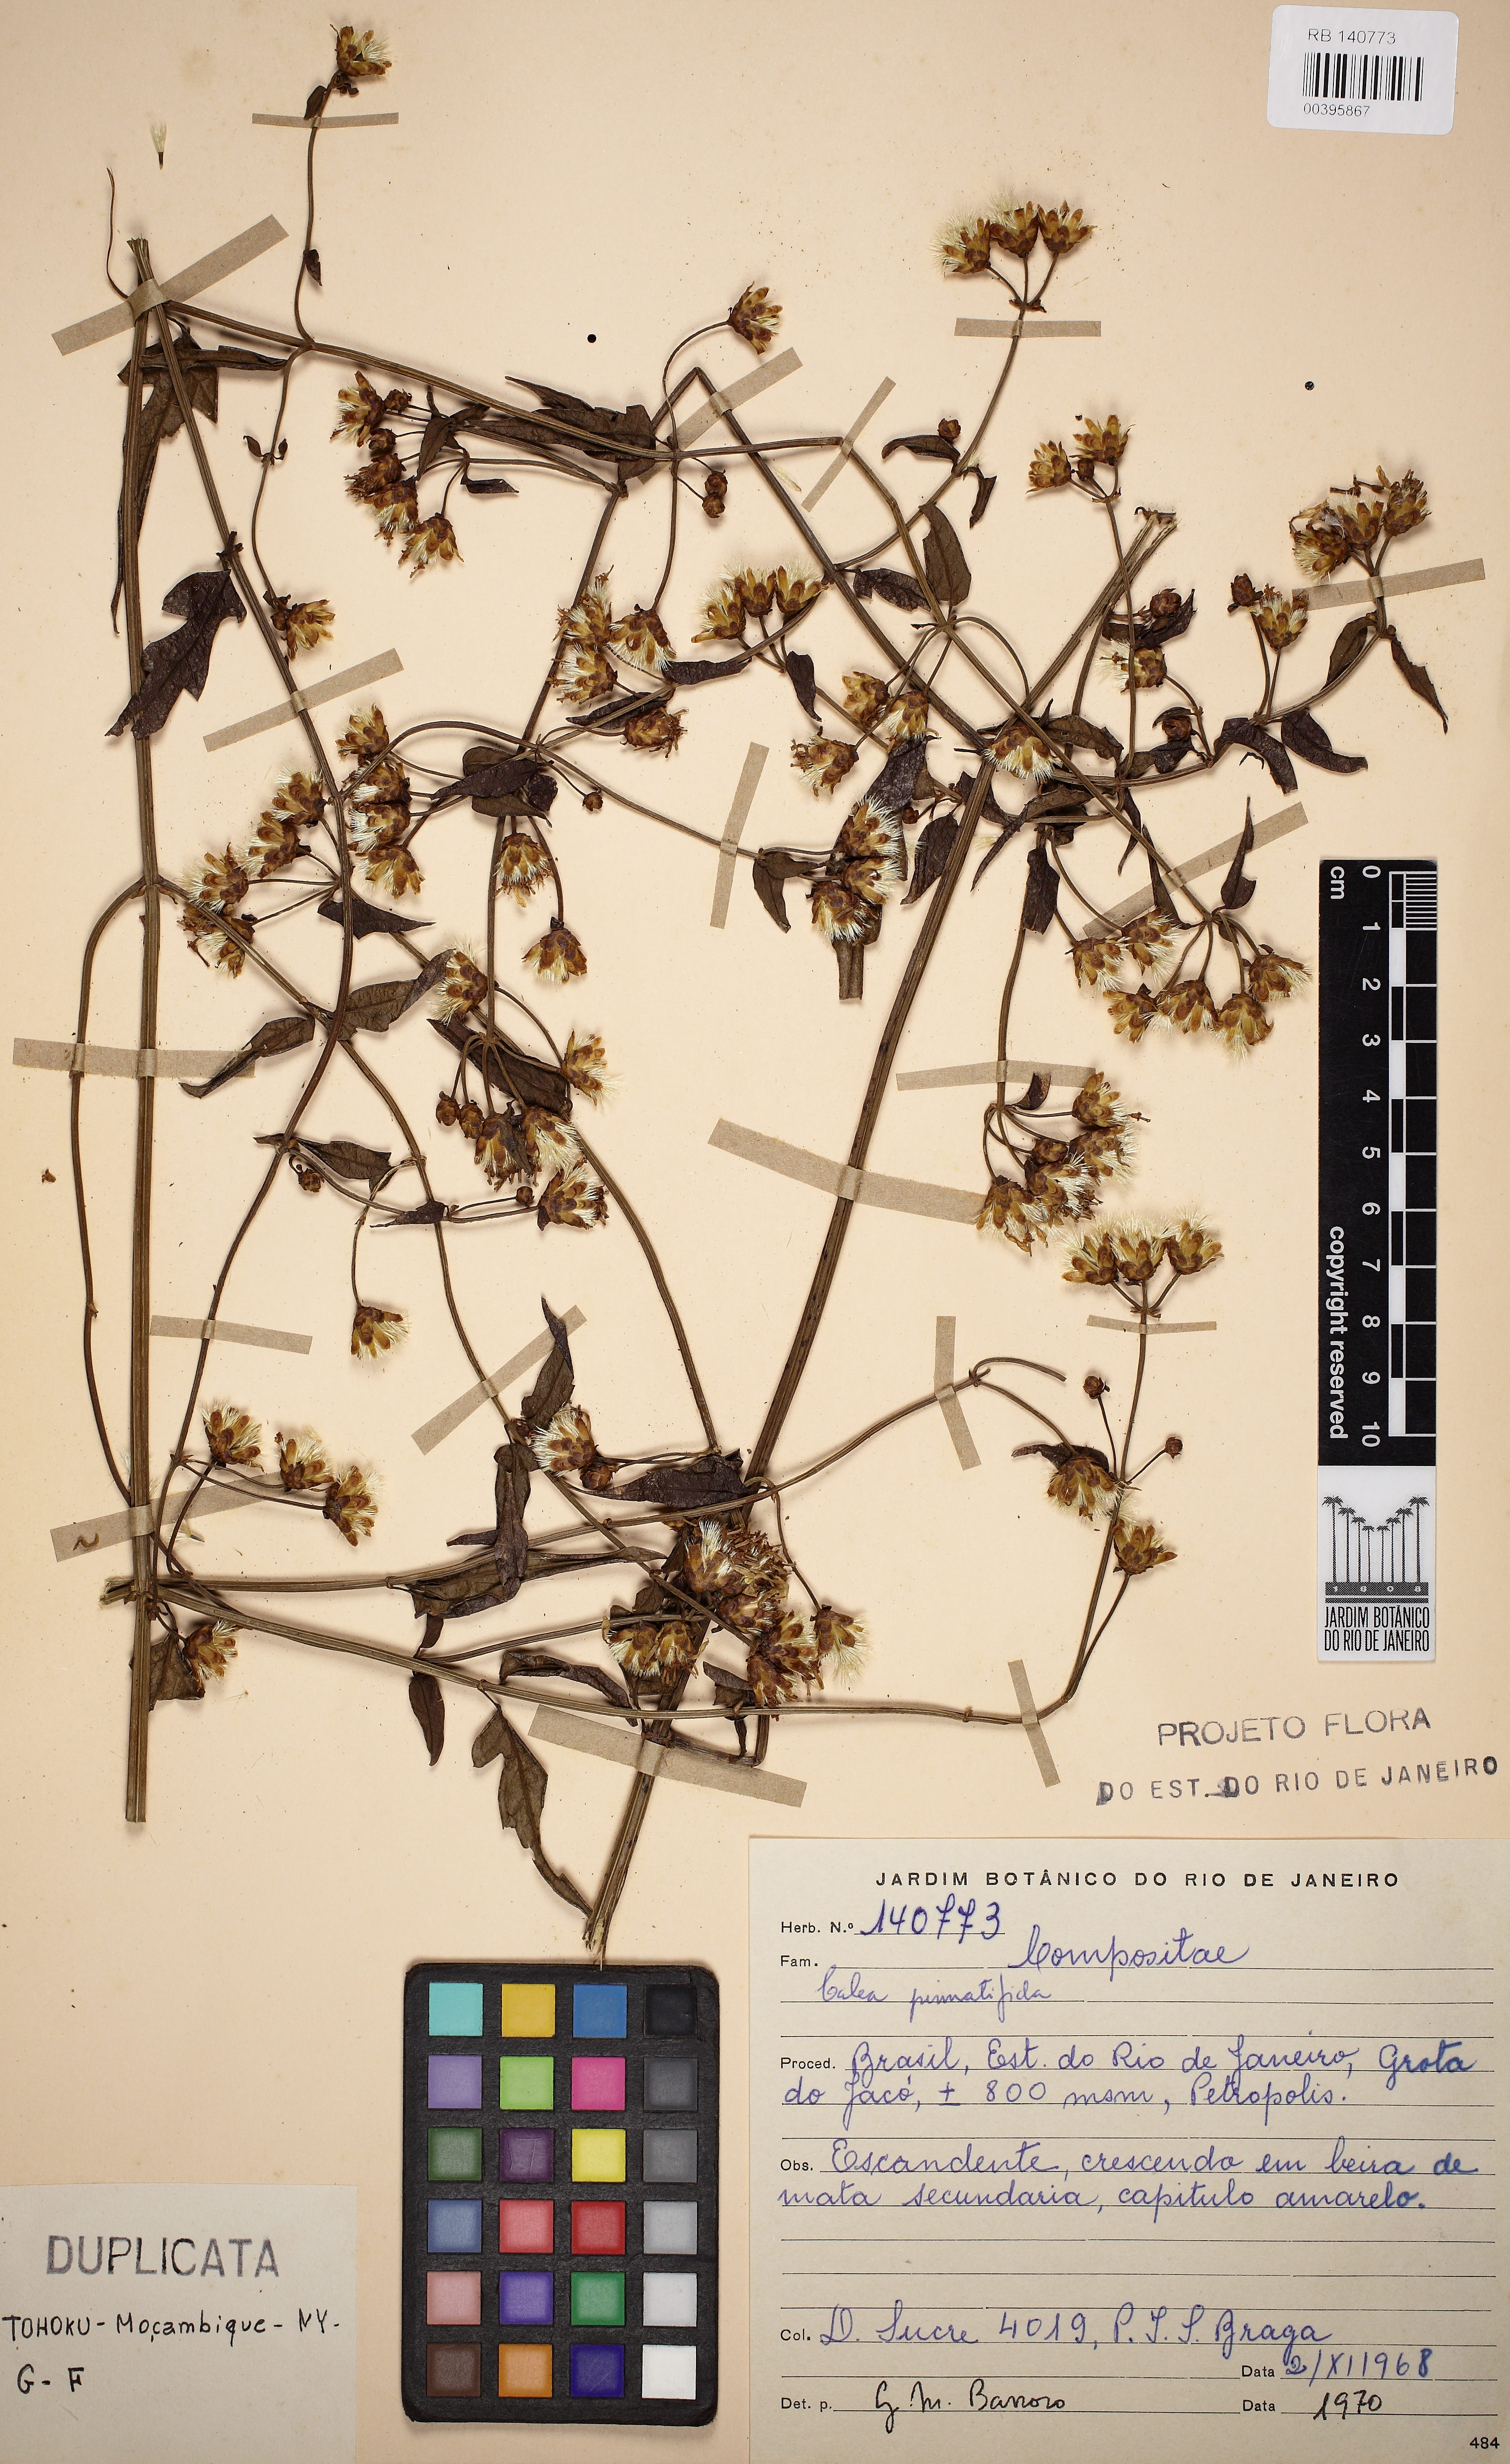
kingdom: Plantae
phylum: Tracheophyta
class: Magnoliopsida
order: Asterales
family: Asteraceae
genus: Calea
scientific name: Calea pinnatifida
